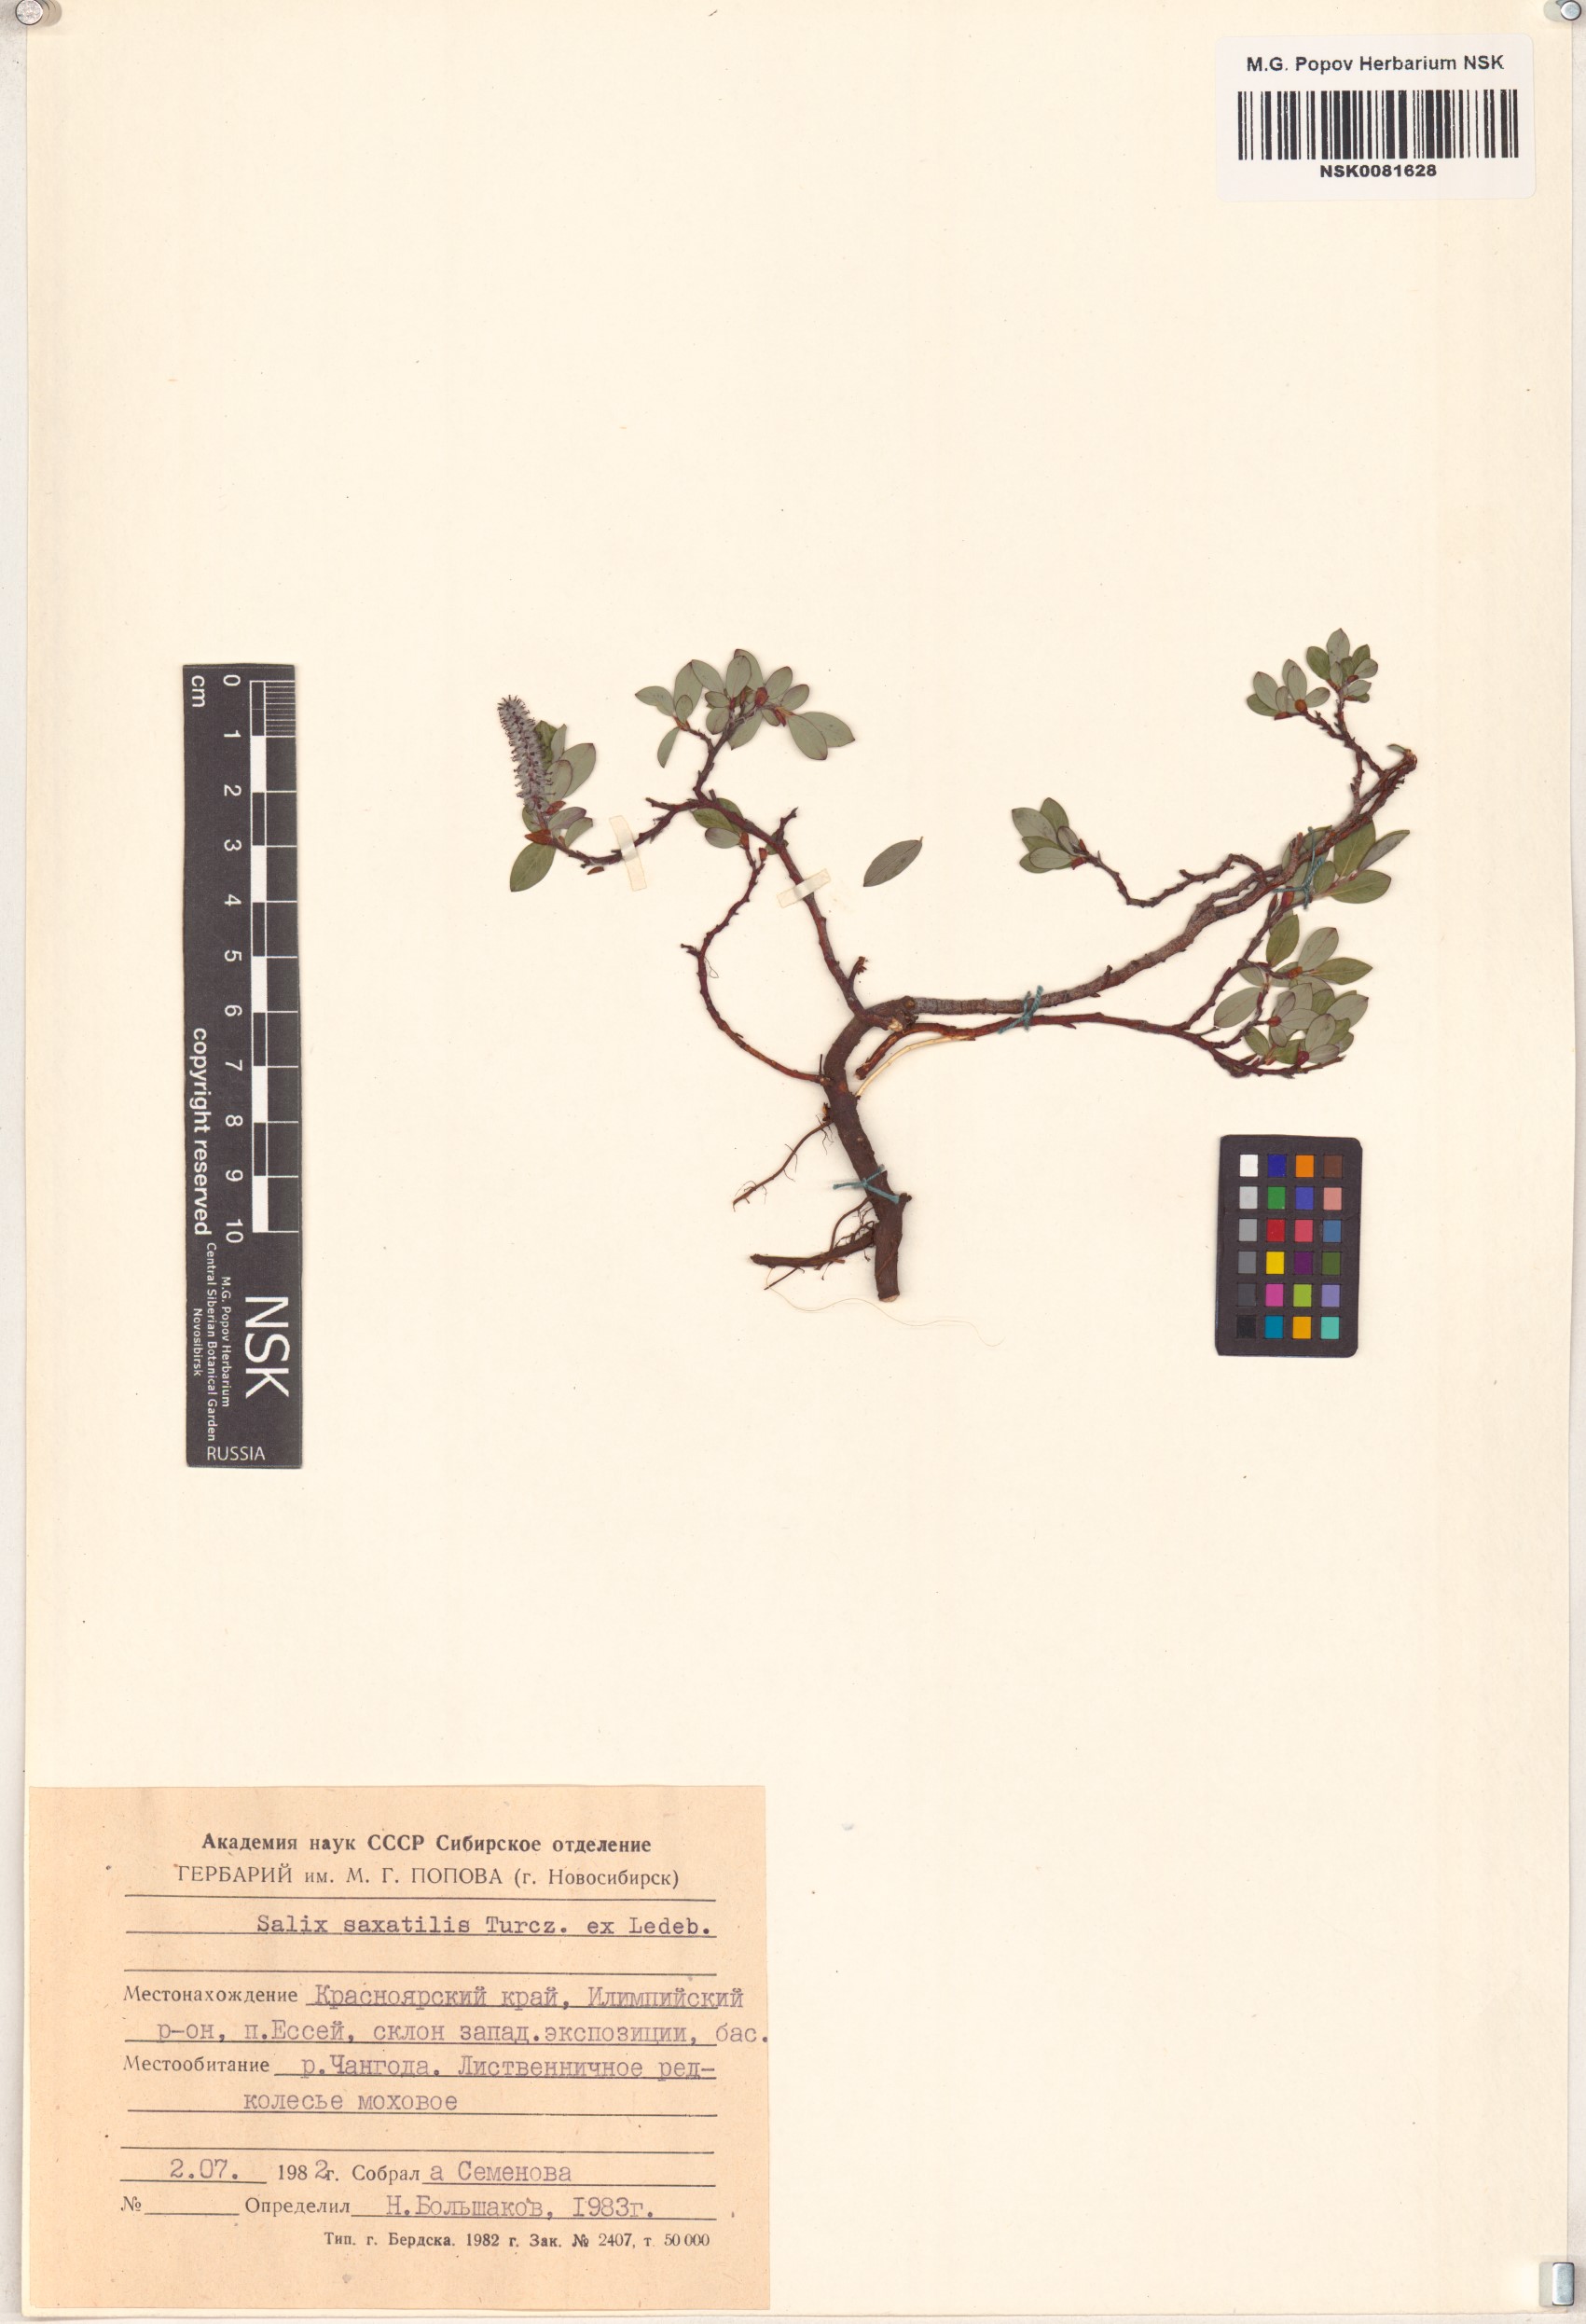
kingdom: Plantae
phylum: Tracheophyta
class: Magnoliopsida
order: Malpighiales
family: Salicaceae
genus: Salix
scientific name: Salix saxatilis
